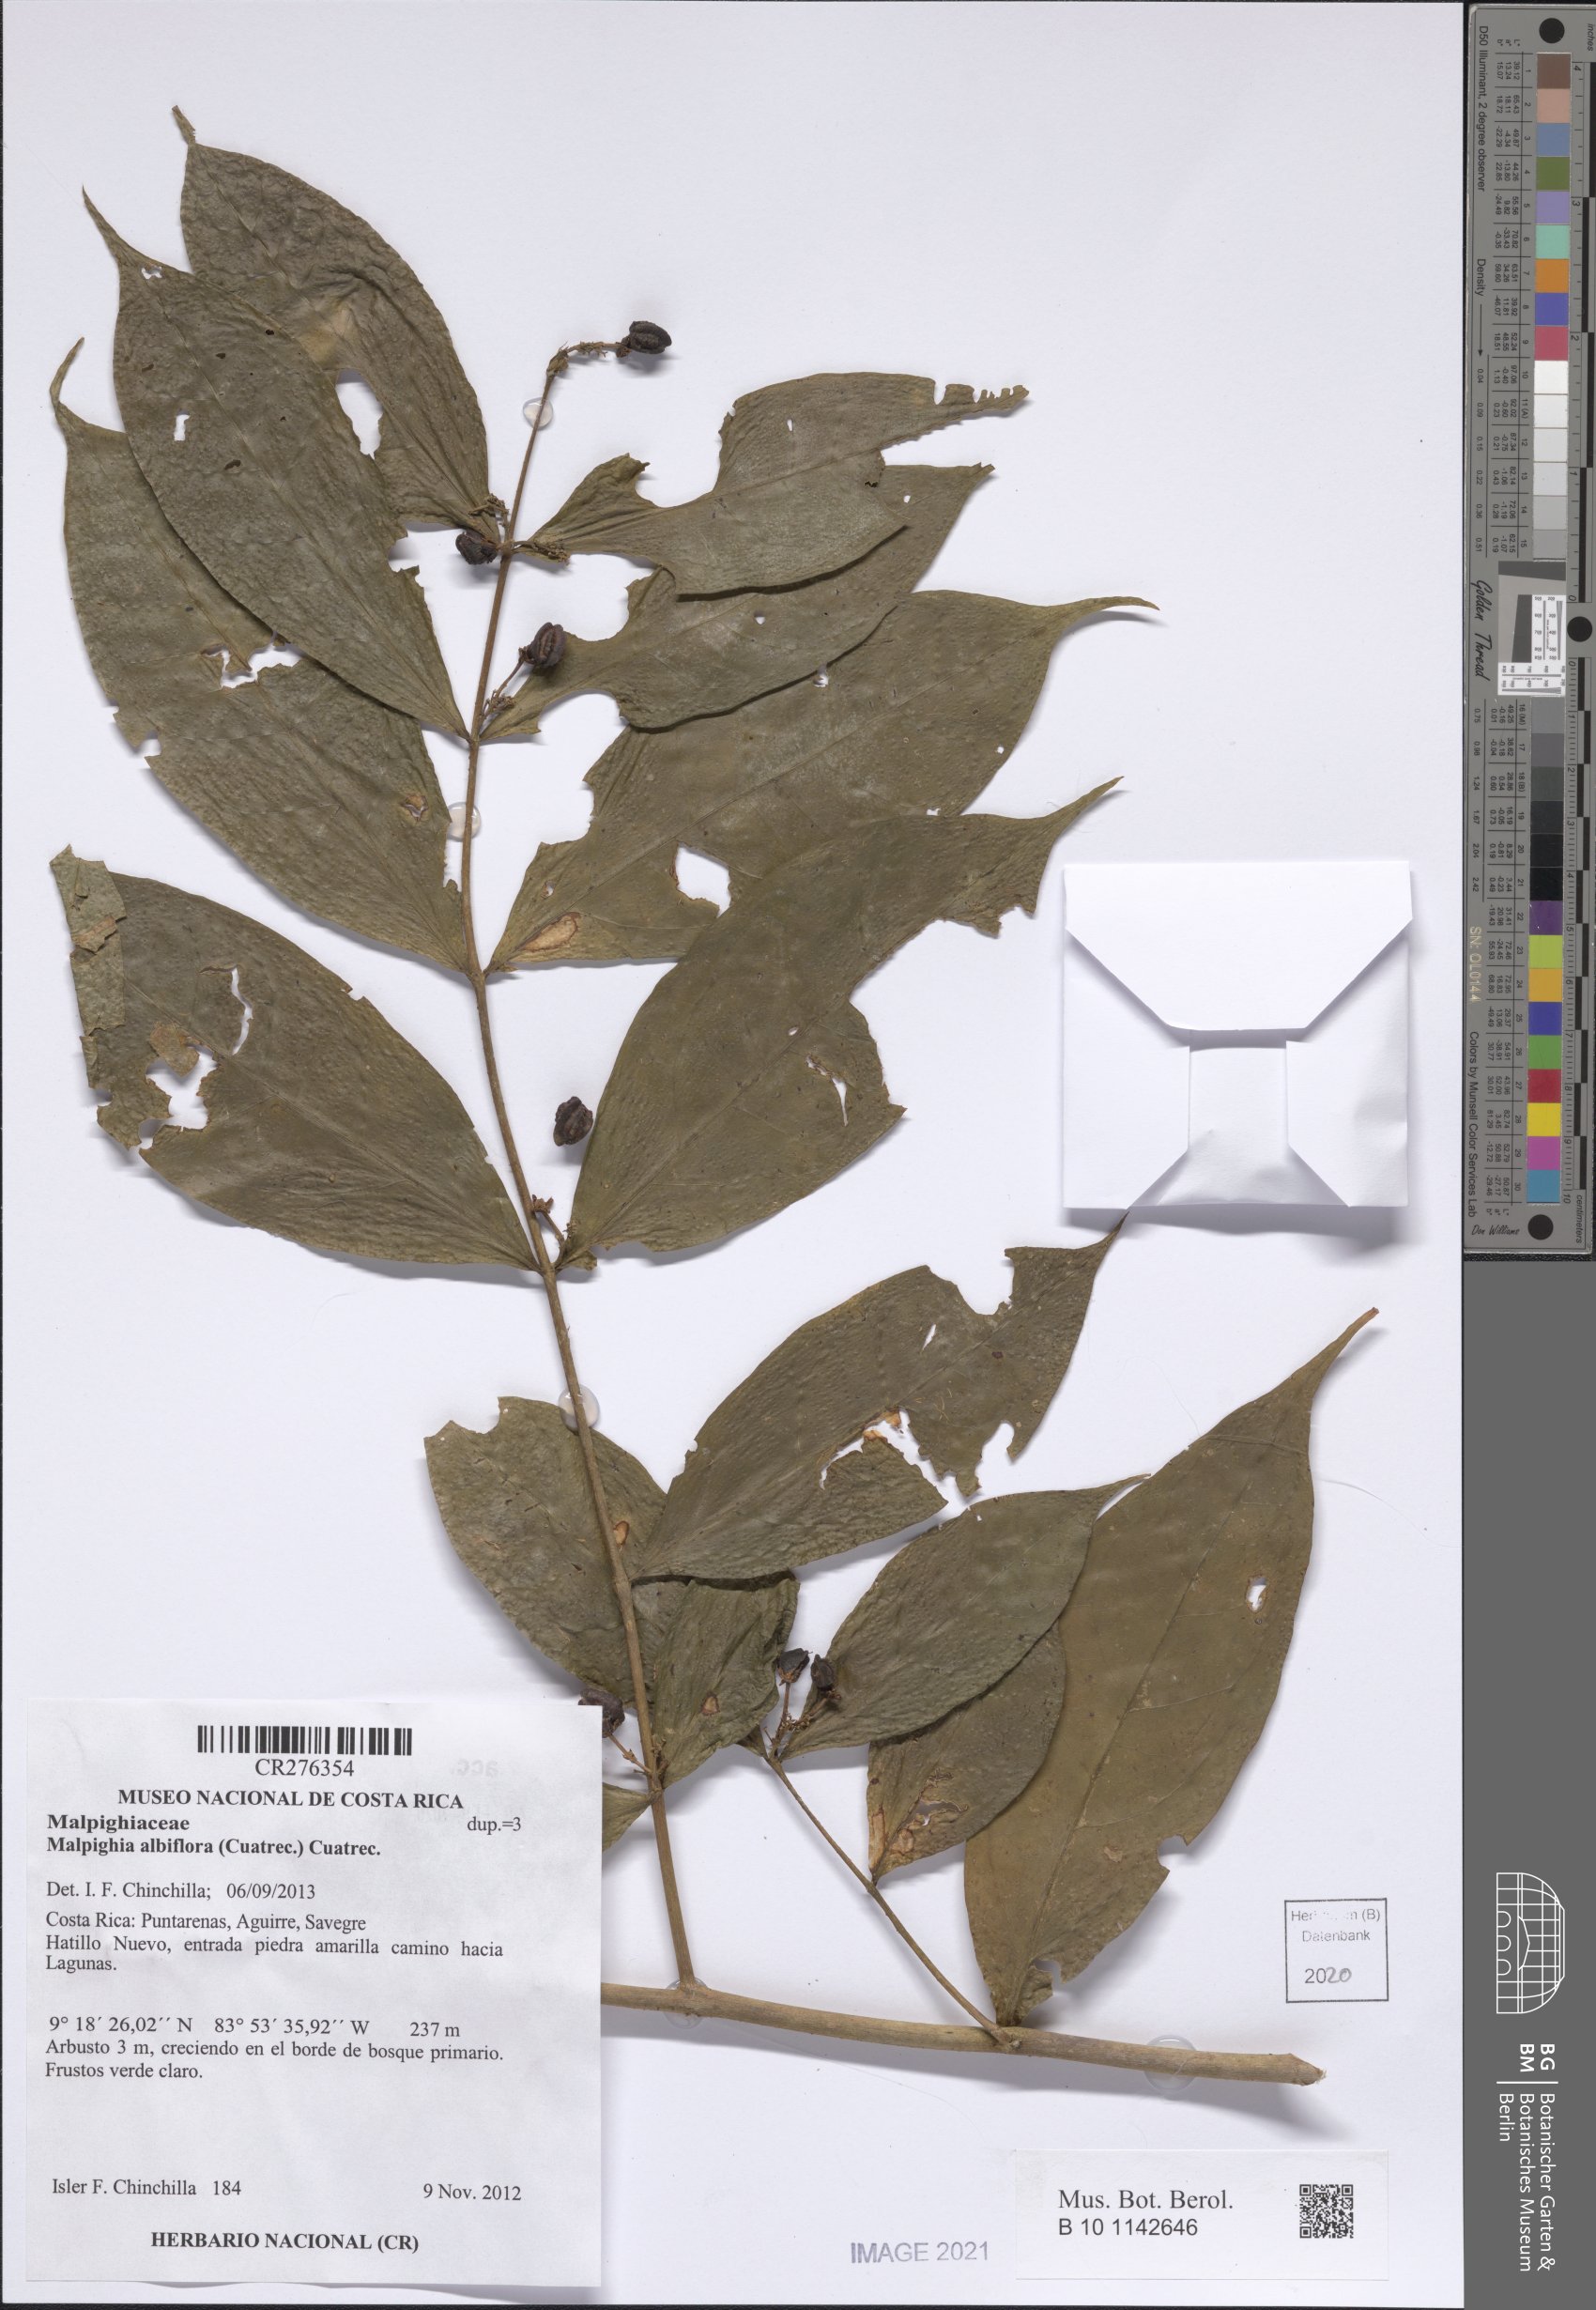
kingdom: Plantae
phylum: Tracheophyta
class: Magnoliopsida
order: Malpighiales
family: Malpighiaceae
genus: Malpighia
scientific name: Malpighia albiflora
